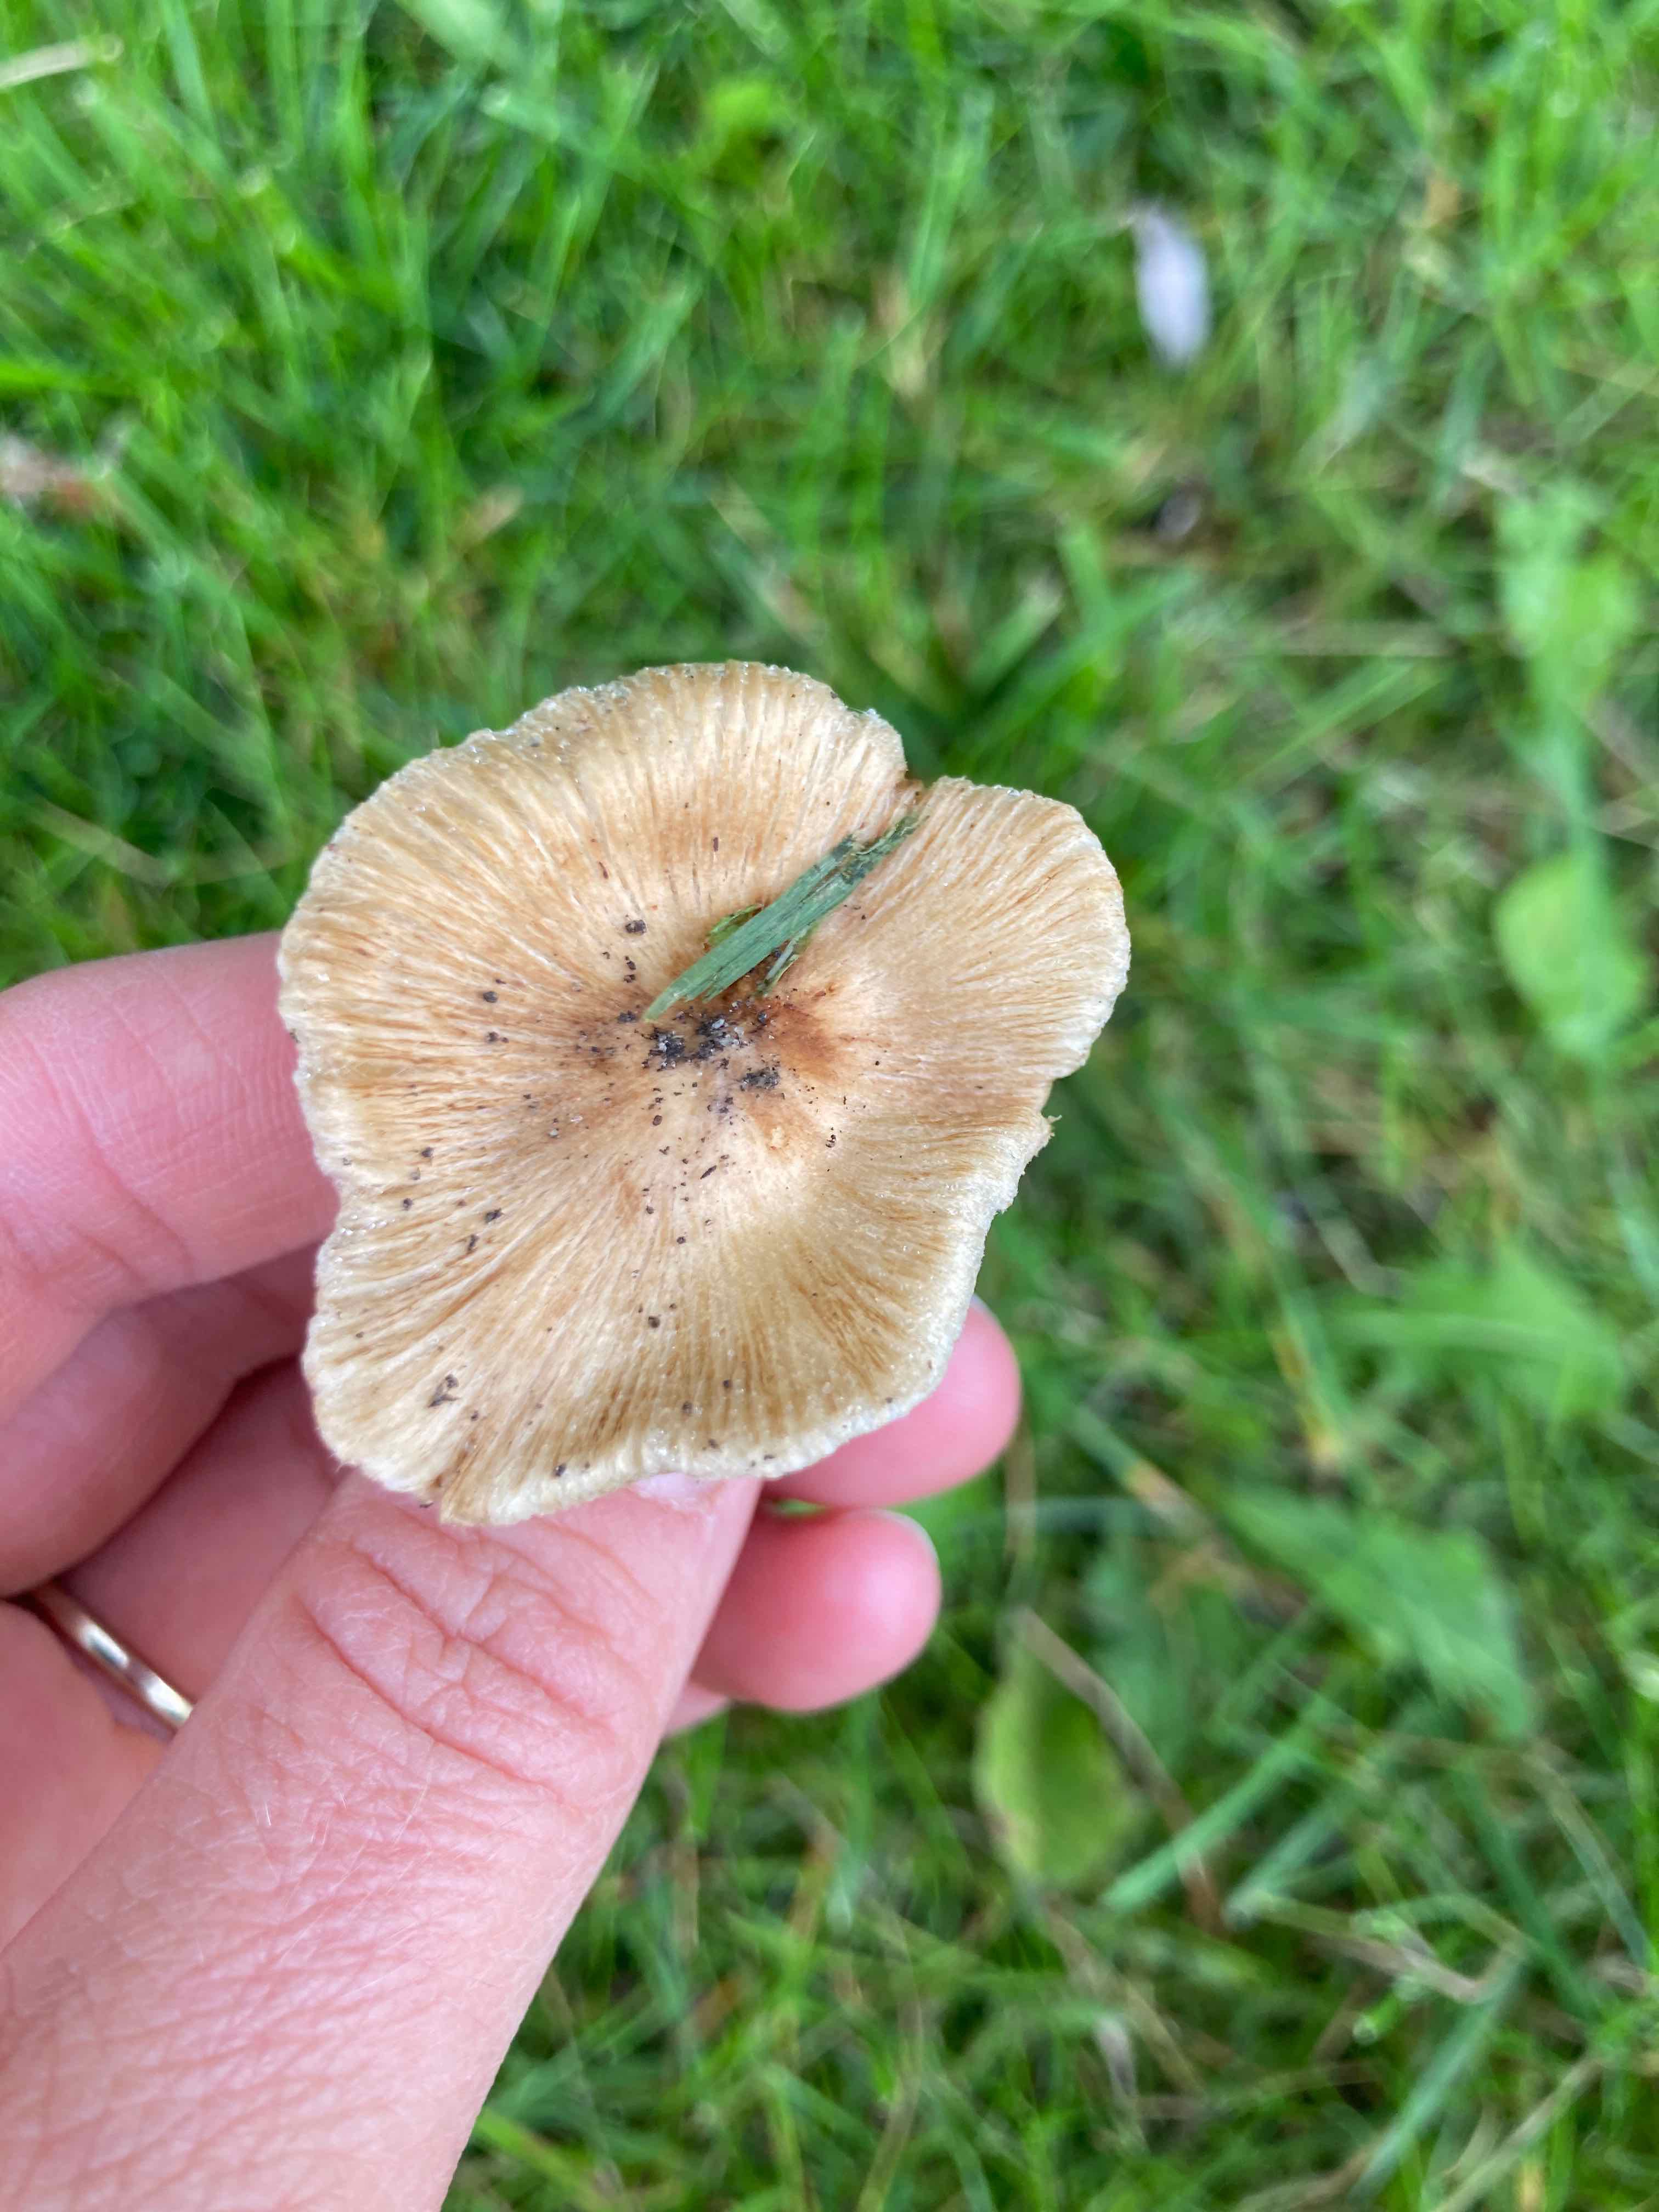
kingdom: Fungi
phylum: Basidiomycota
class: Agaricomycetes
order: Agaricales
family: Inocybaceae
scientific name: Inocybaceae
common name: trævlhatfamilien
